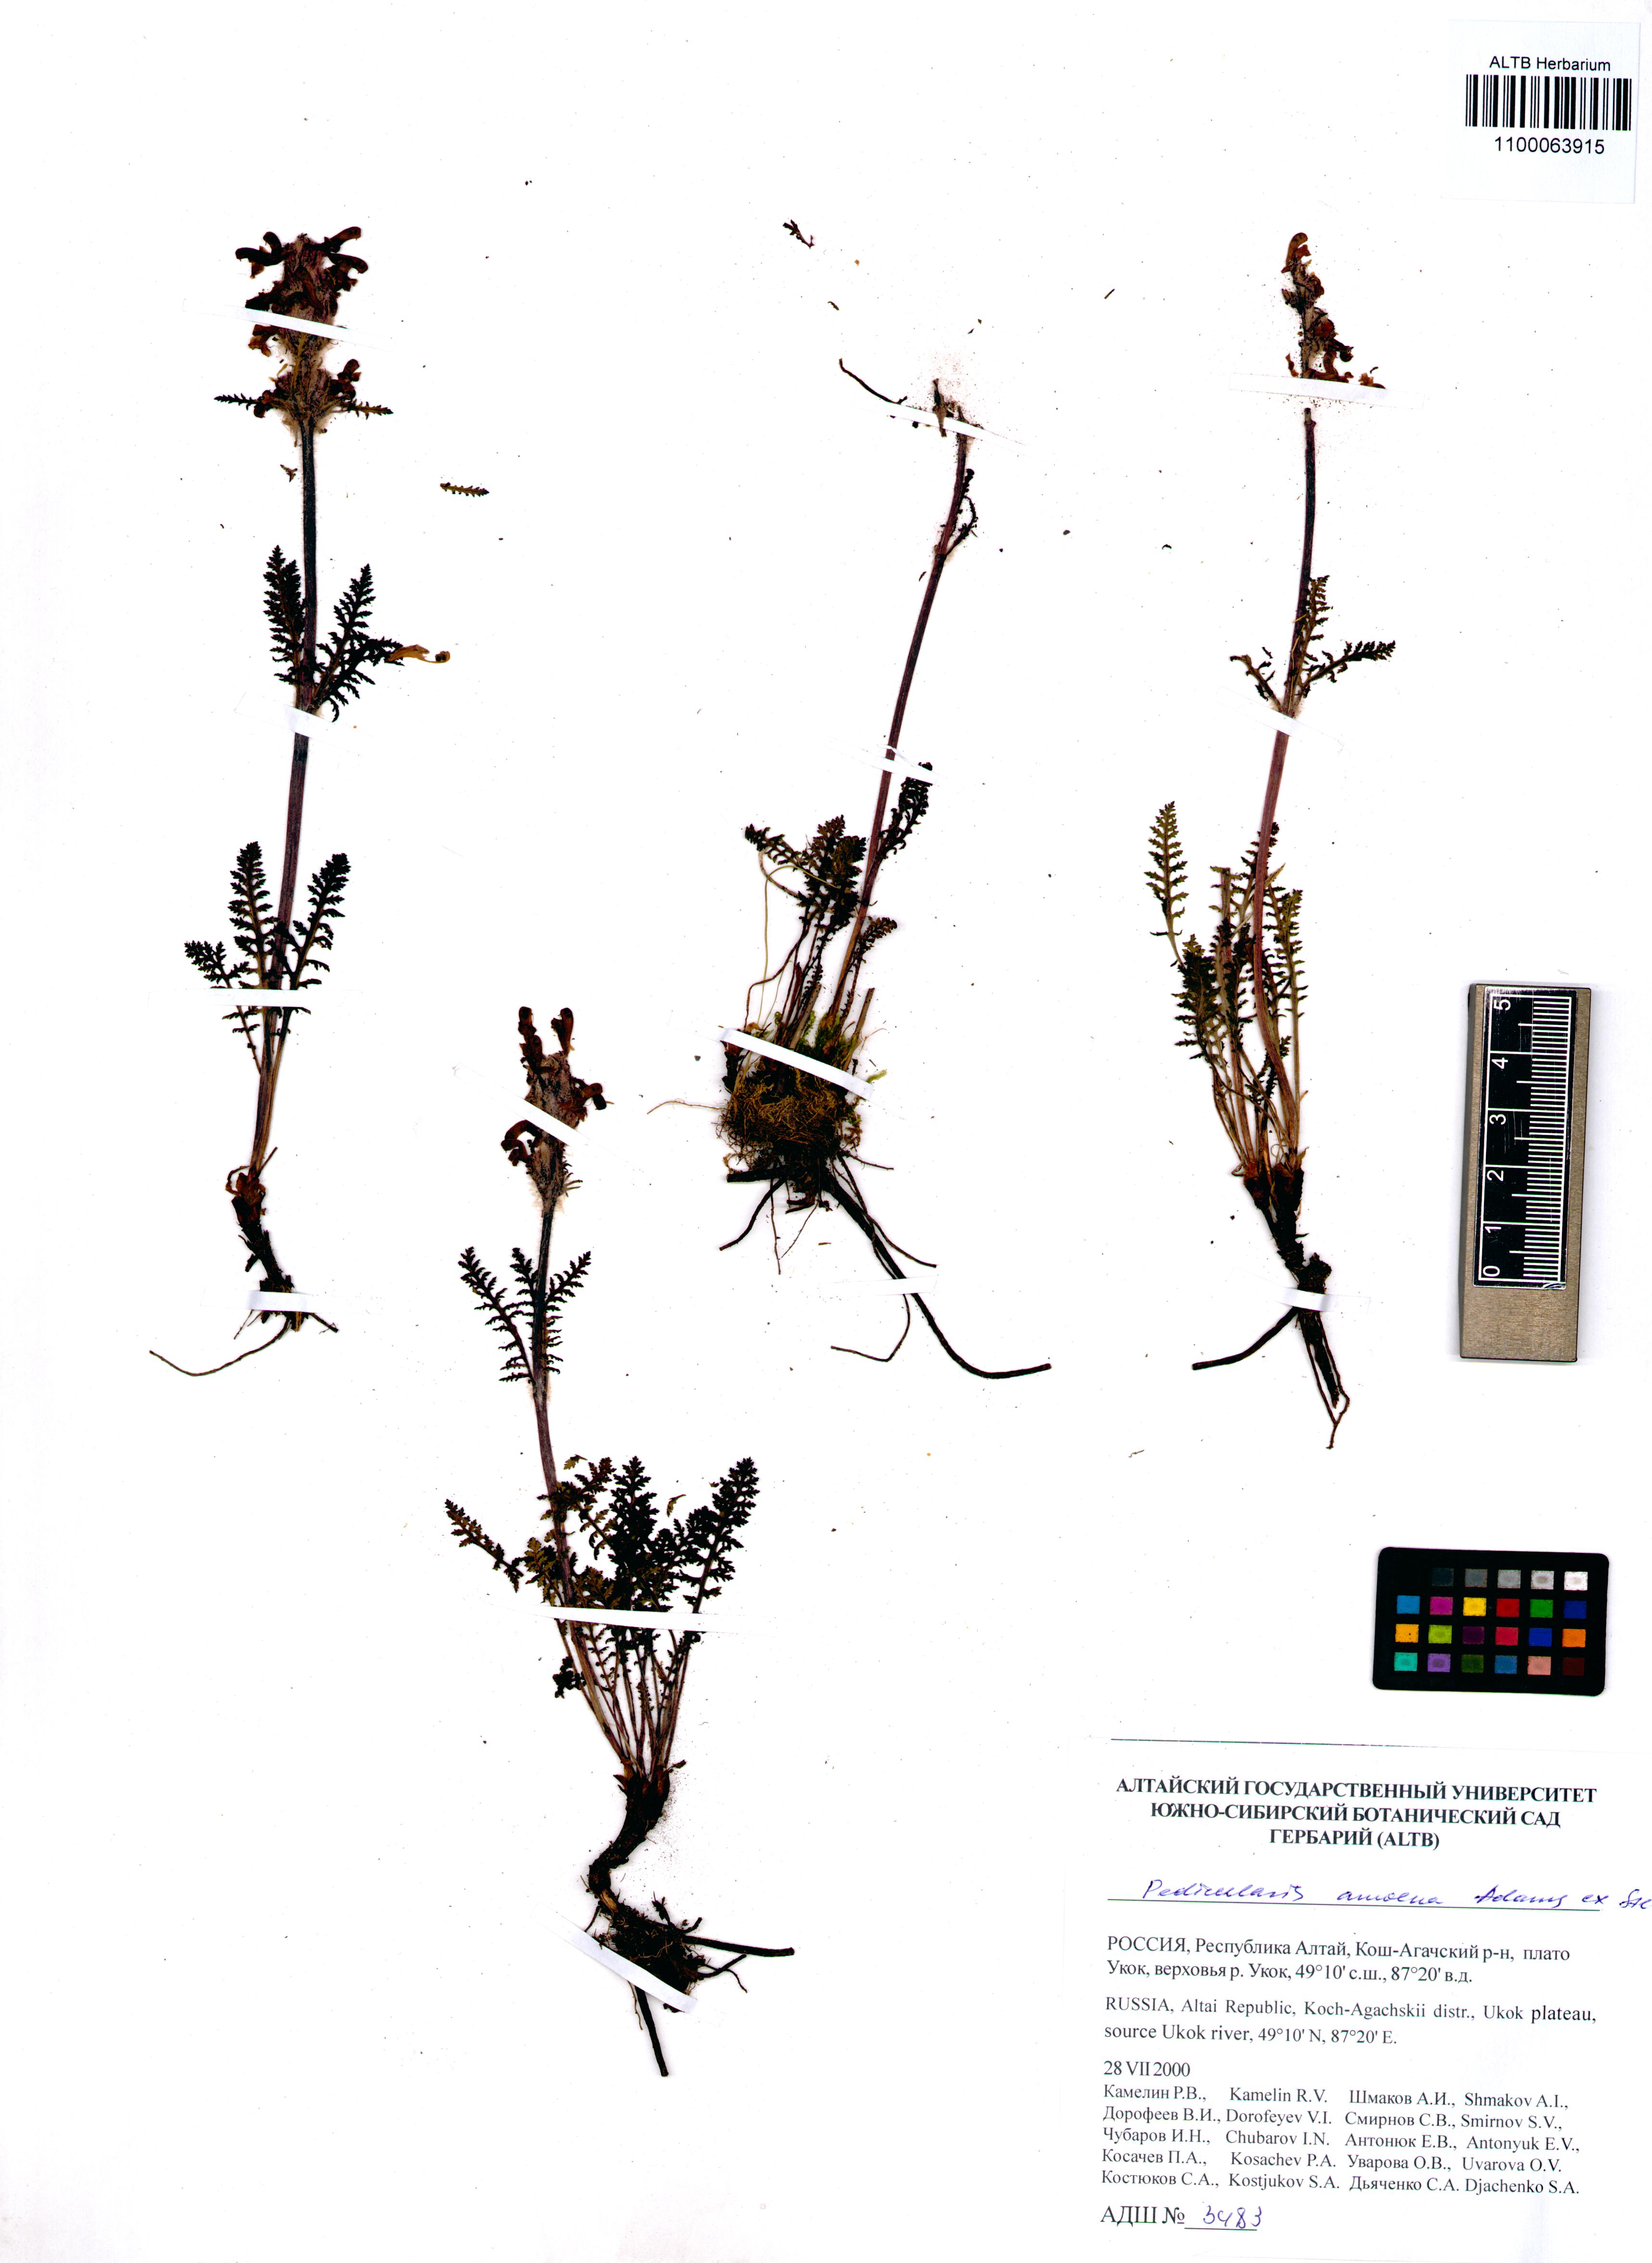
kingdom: Plantae
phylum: Tracheophyta
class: Magnoliopsida
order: Lamiales
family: Orobanchaceae
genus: Pedicularis
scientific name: Pedicularis amoena
